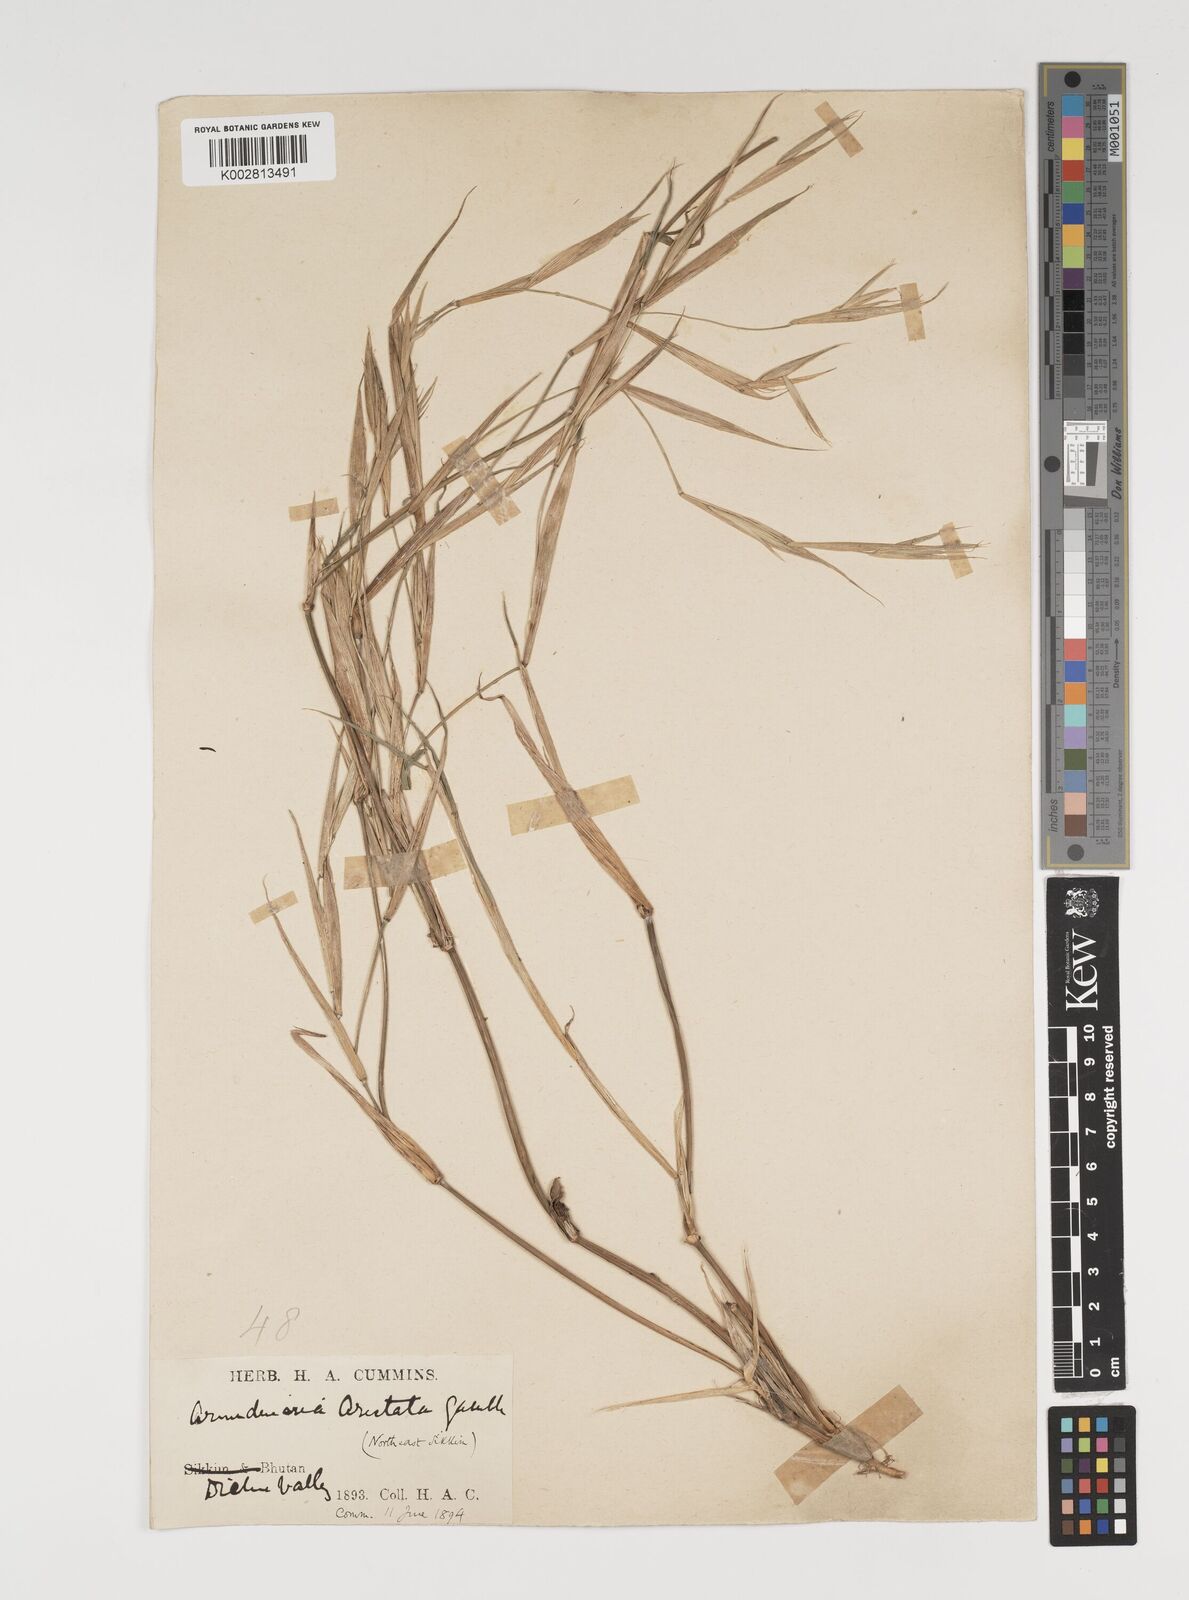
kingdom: Plantae
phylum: Tracheophyta
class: Liliopsida
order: Poales
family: Poaceae
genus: Thamnocalamus
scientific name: Thamnocalamus spathiflorus
